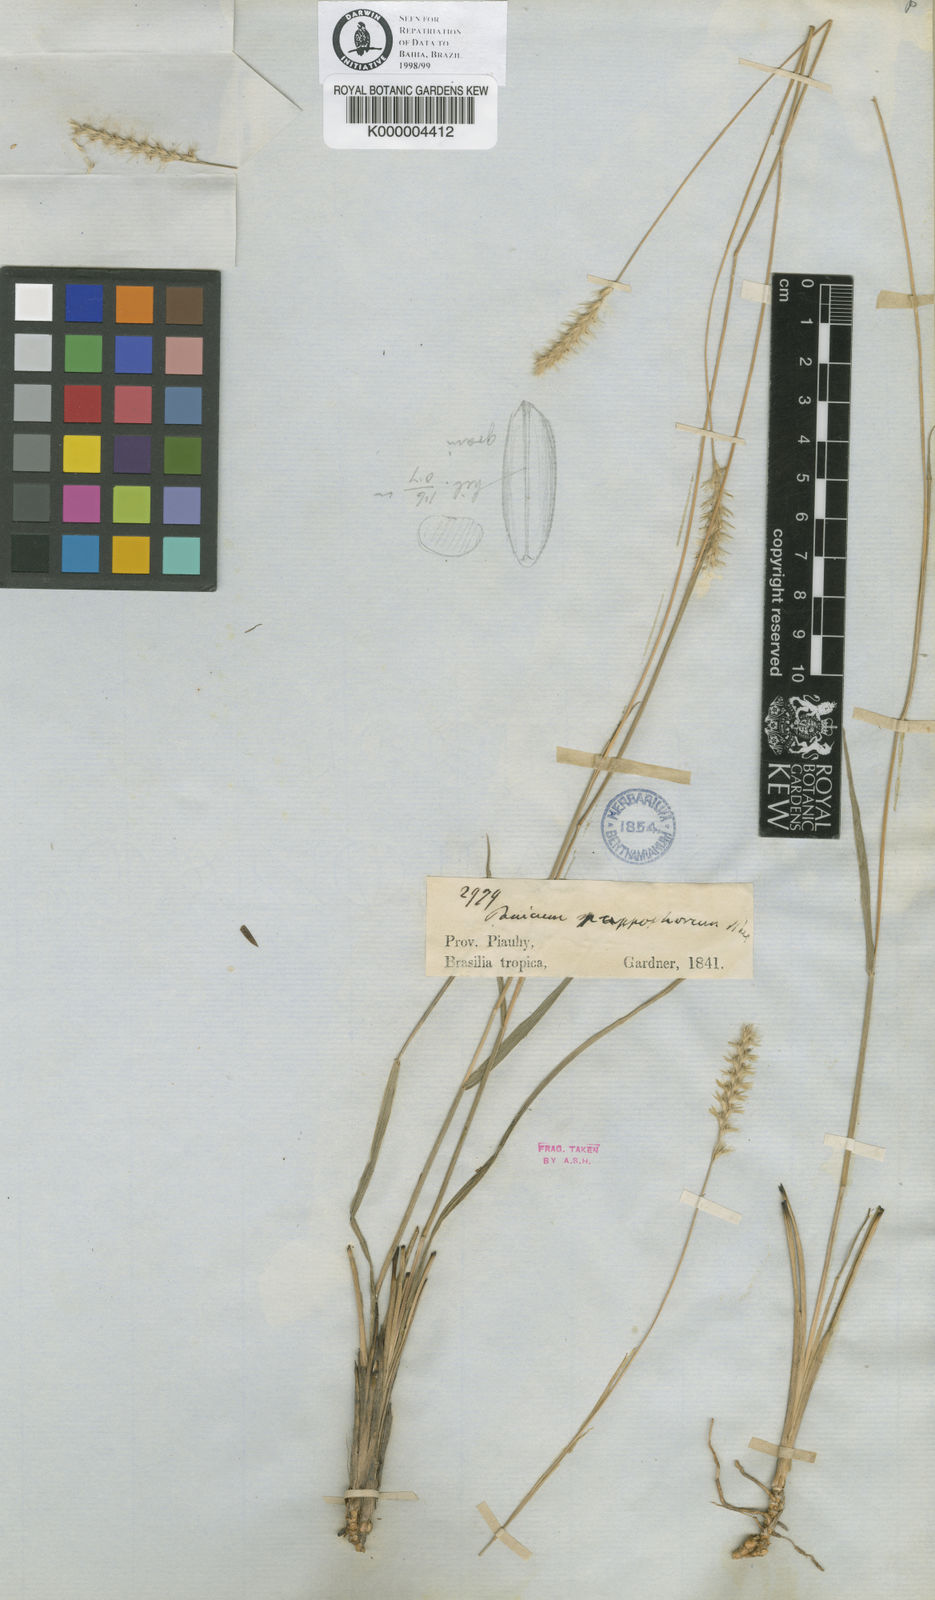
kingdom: Plantae
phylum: Tracheophyta
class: Liliopsida
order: Poales
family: Poaceae
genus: Mesosetum
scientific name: Mesosetum penicillatum
